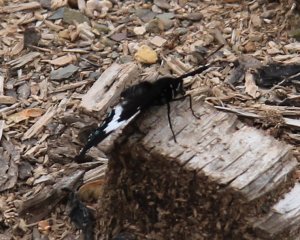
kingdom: Animalia
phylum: Arthropoda
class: Insecta
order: Lepidoptera
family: Nymphalidae
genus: Limenitis
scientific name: Limenitis arthemis
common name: Red-spotted Admiral
